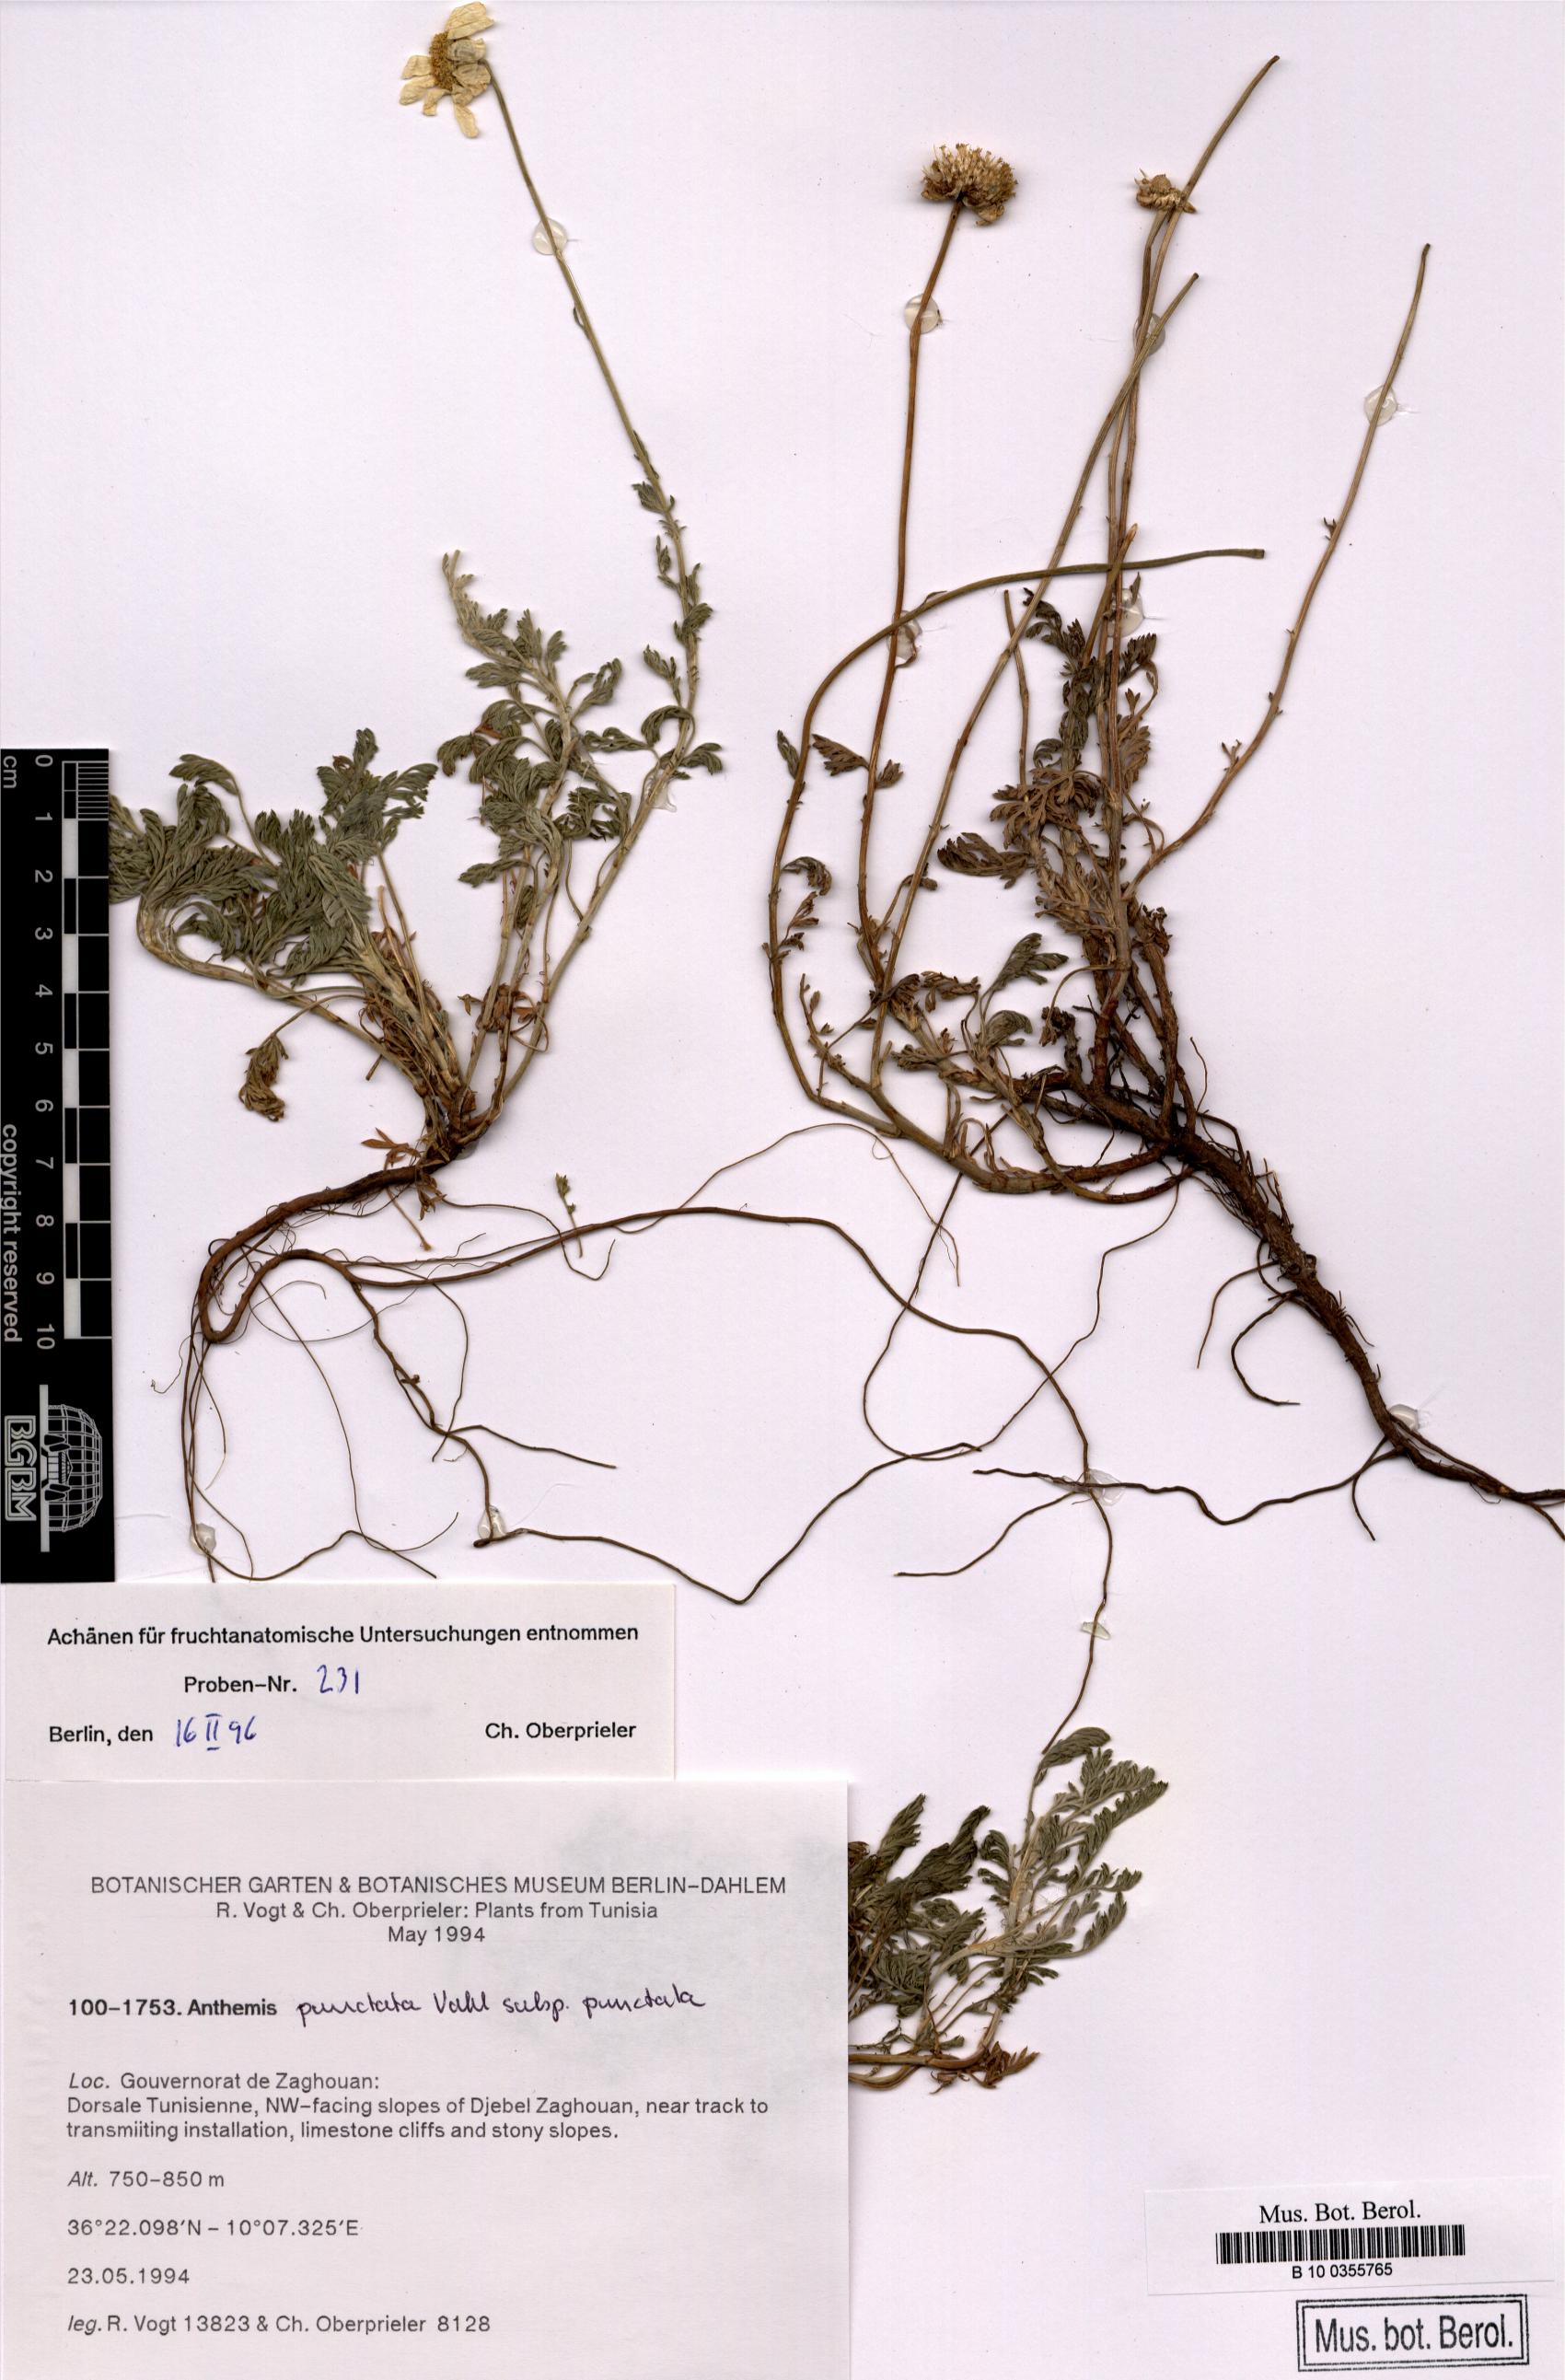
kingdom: Plantae
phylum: Tracheophyta
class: Magnoliopsida
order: Asterales
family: Asteraceae
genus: Anthemis
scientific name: Anthemis punctata
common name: Sicilian chamomile
